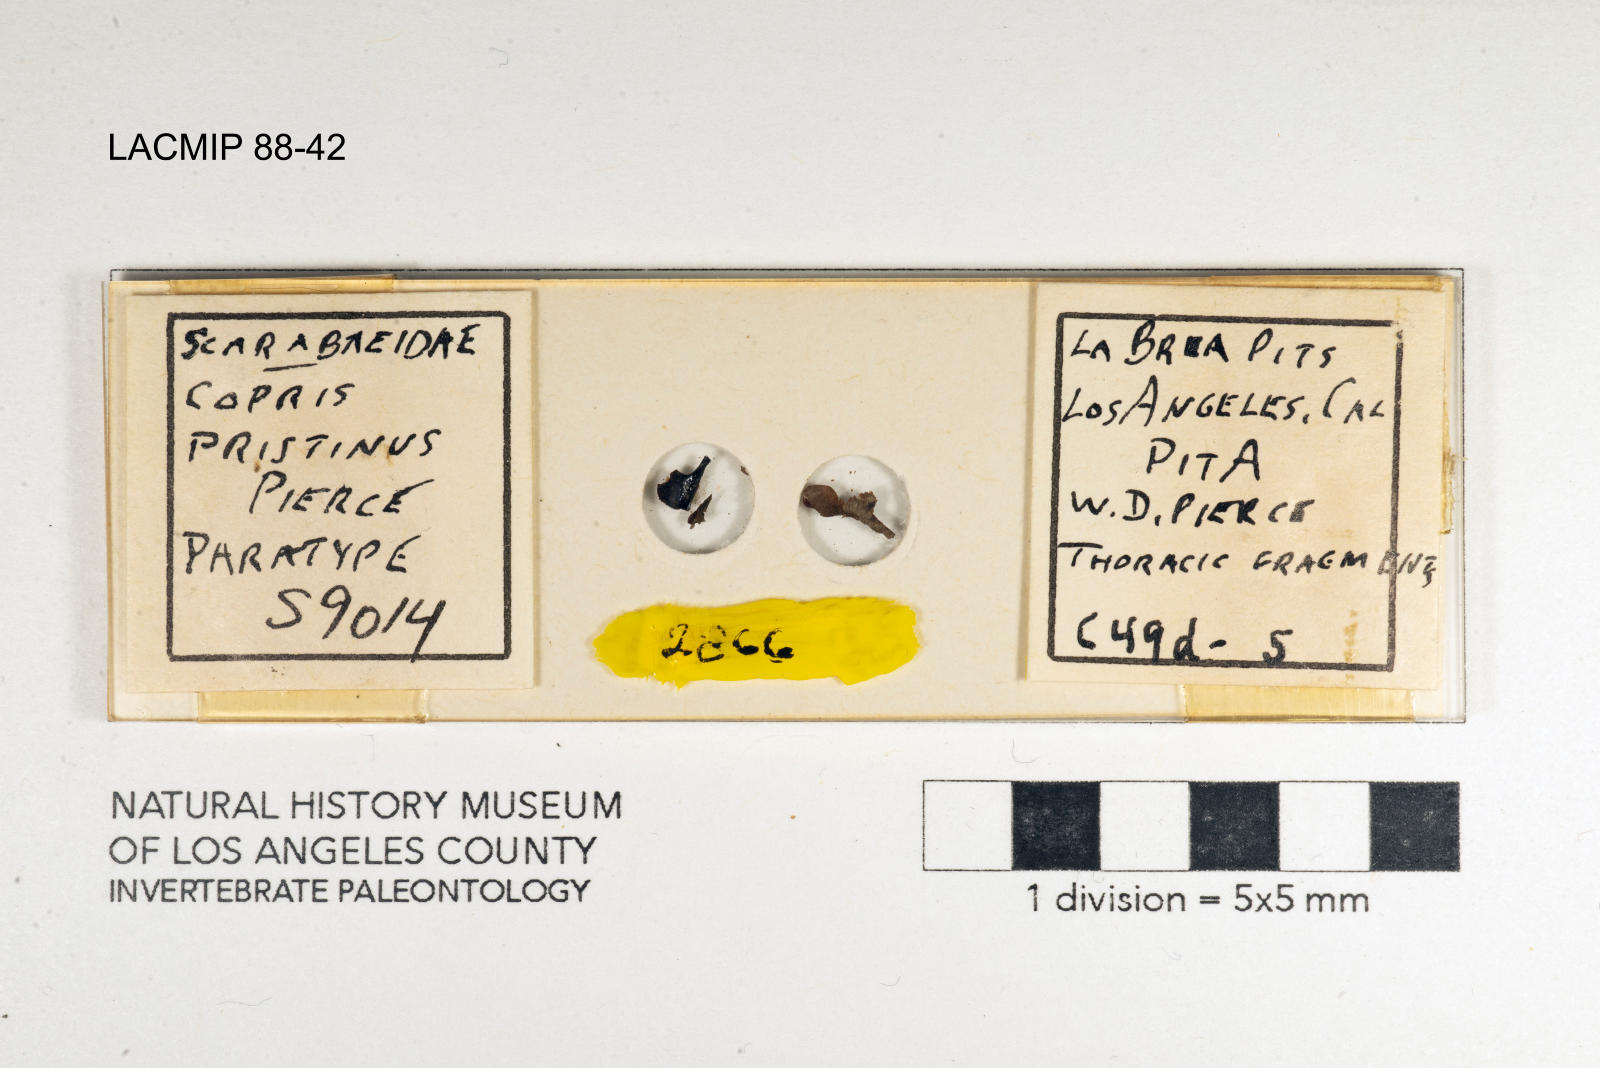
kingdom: Animalia
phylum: Arthropoda
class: Insecta
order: Coleoptera
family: Scarabaeidae
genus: Copris
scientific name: Copris pristinus
